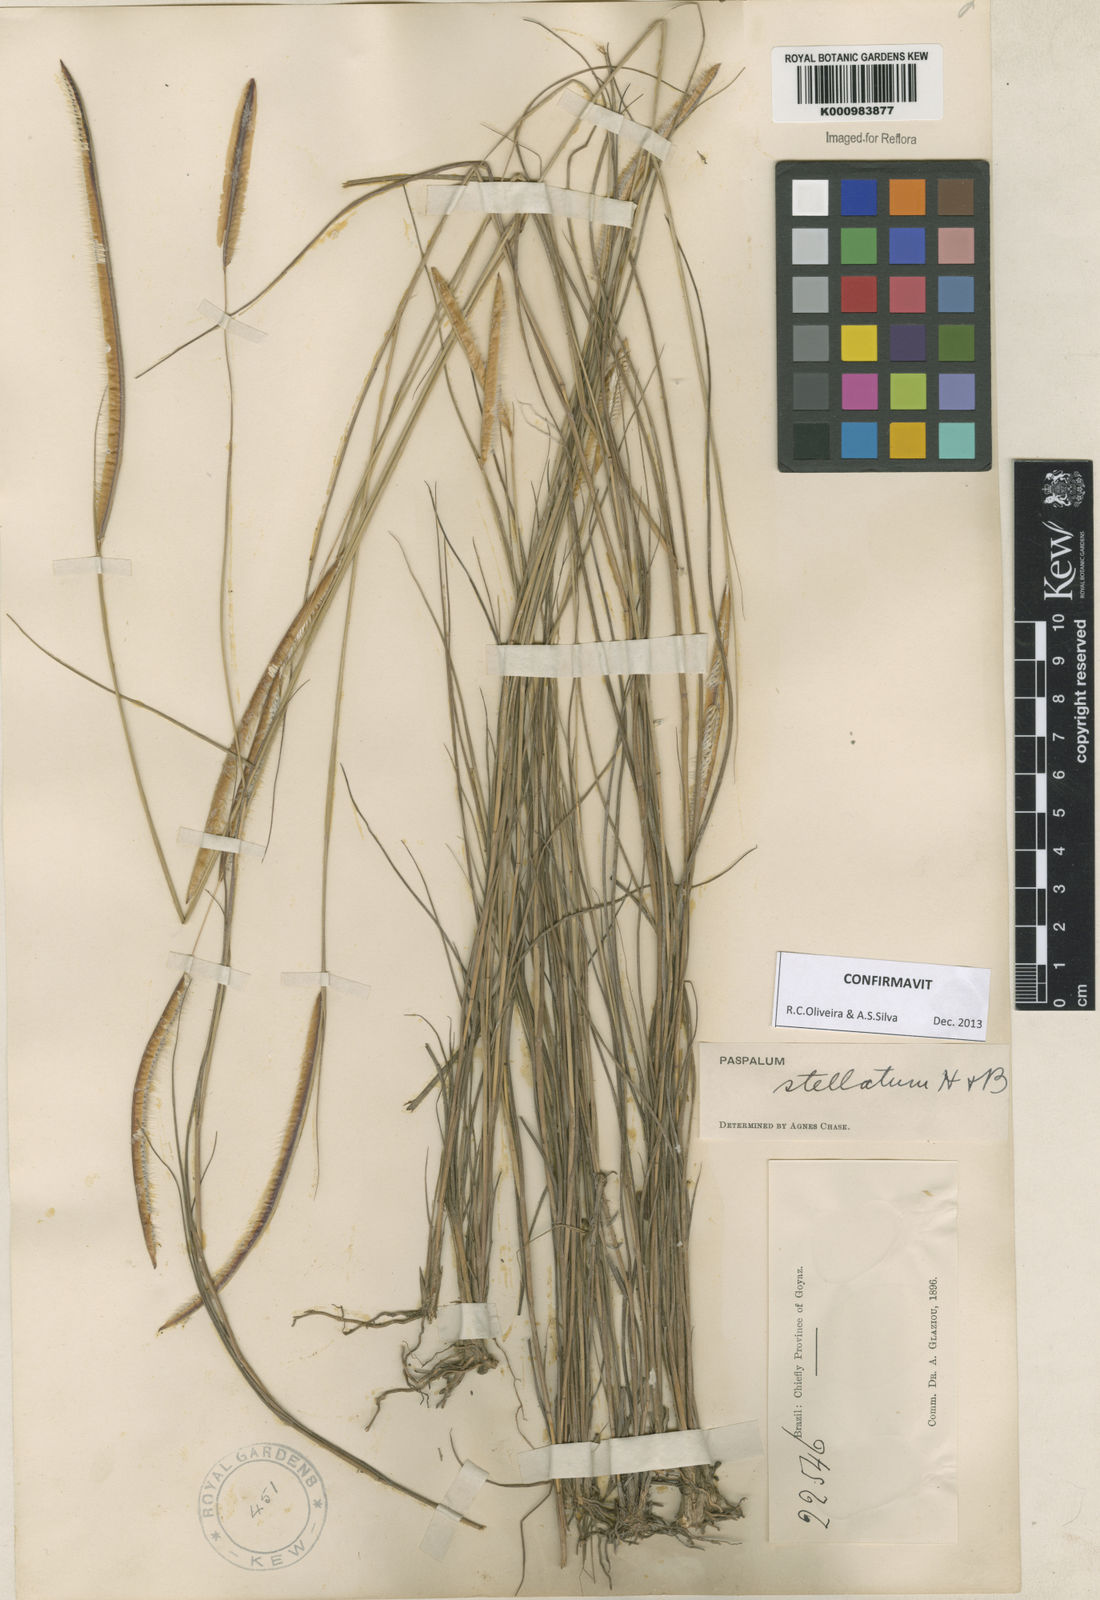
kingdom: Plantae
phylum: Tracheophyta
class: Liliopsida
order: Poales
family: Poaceae
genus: Paspalum
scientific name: Paspalum
